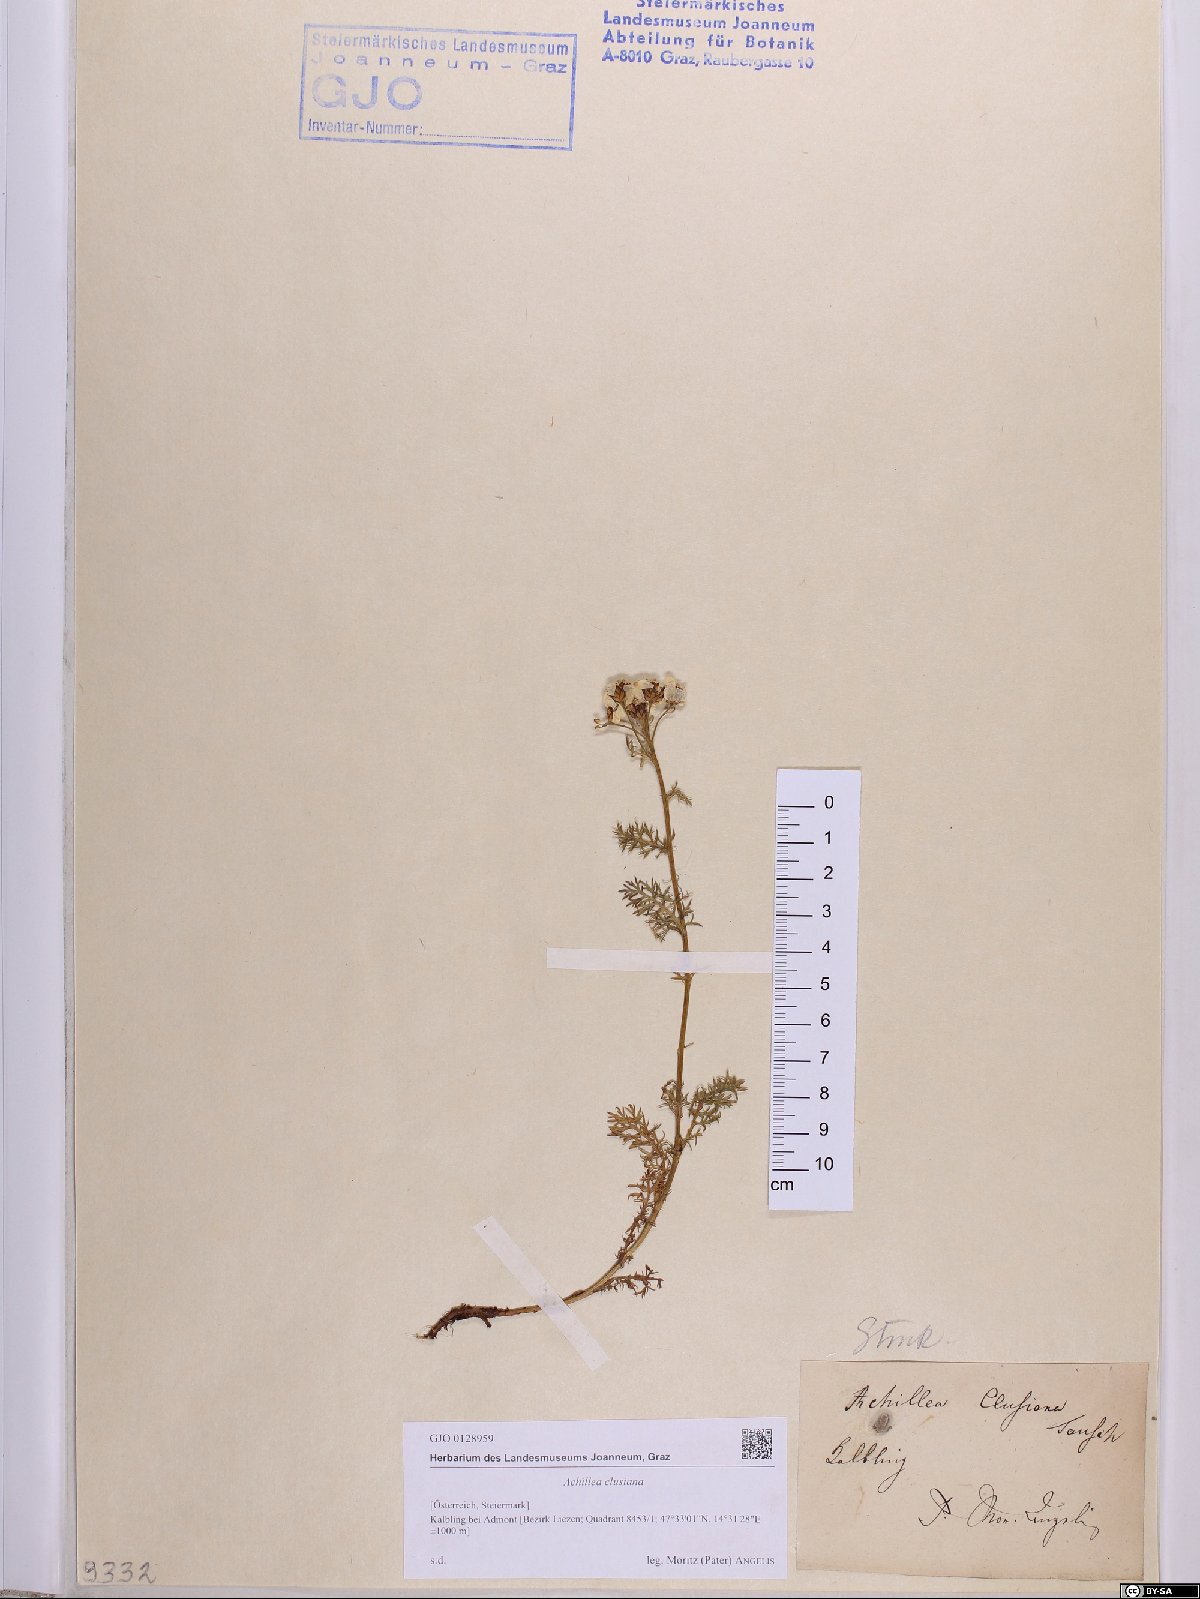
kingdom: Plantae
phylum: Tracheophyta
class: Magnoliopsida
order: Asterales
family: Asteraceae
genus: Achillea
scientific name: Achillea clusiana
